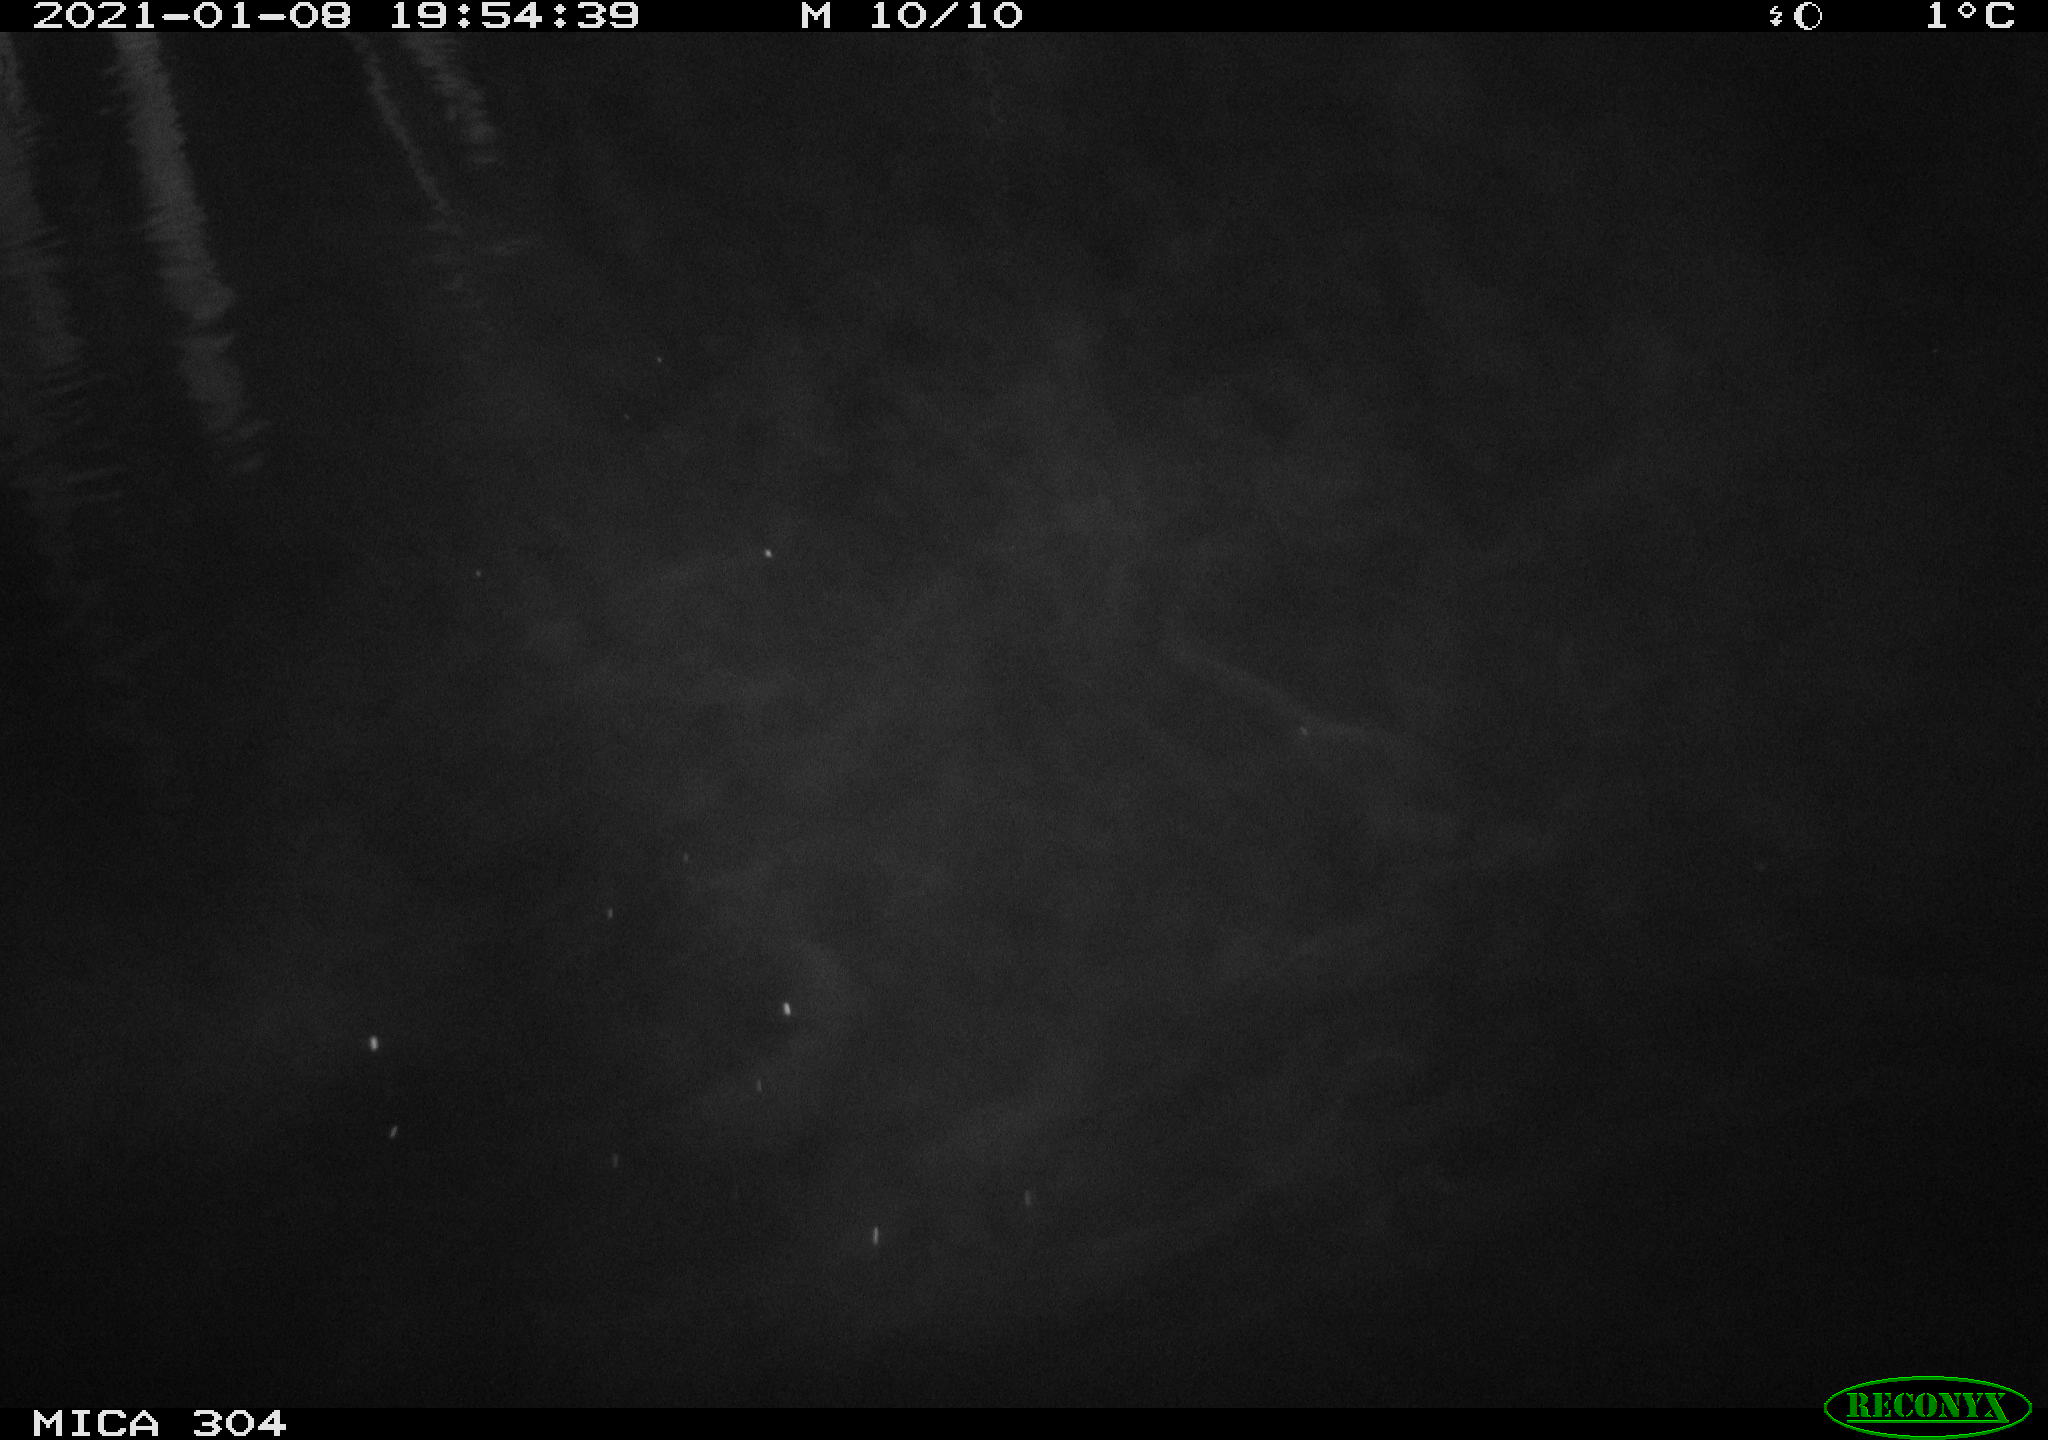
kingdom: Animalia
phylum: Chordata
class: Mammalia
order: Rodentia
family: Muridae
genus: Rattus
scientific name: Rattus norvegicus
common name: Brown rat
